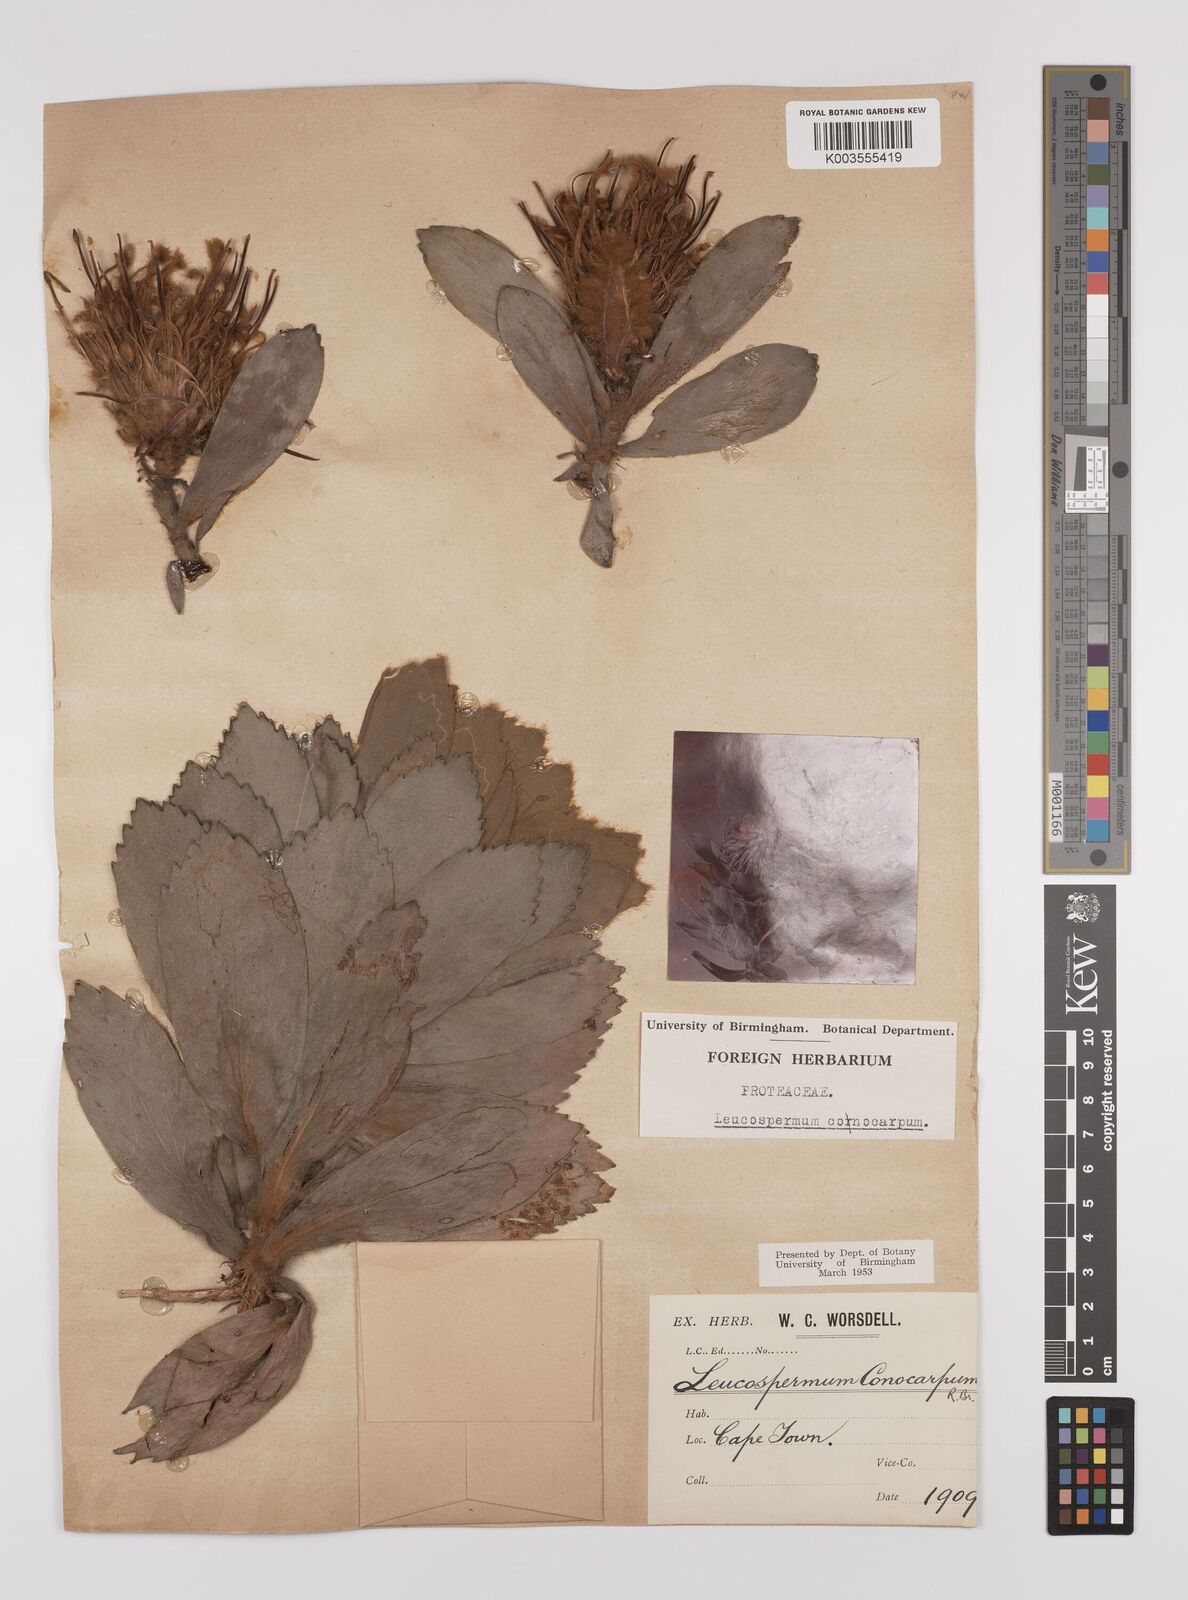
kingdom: Plantae
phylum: Tracheophyta
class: Magnoliopsida
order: Proteales
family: Proteaceae
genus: Leucospermum
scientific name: Leucospermum conocarpodendron
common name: Tree pincushion
